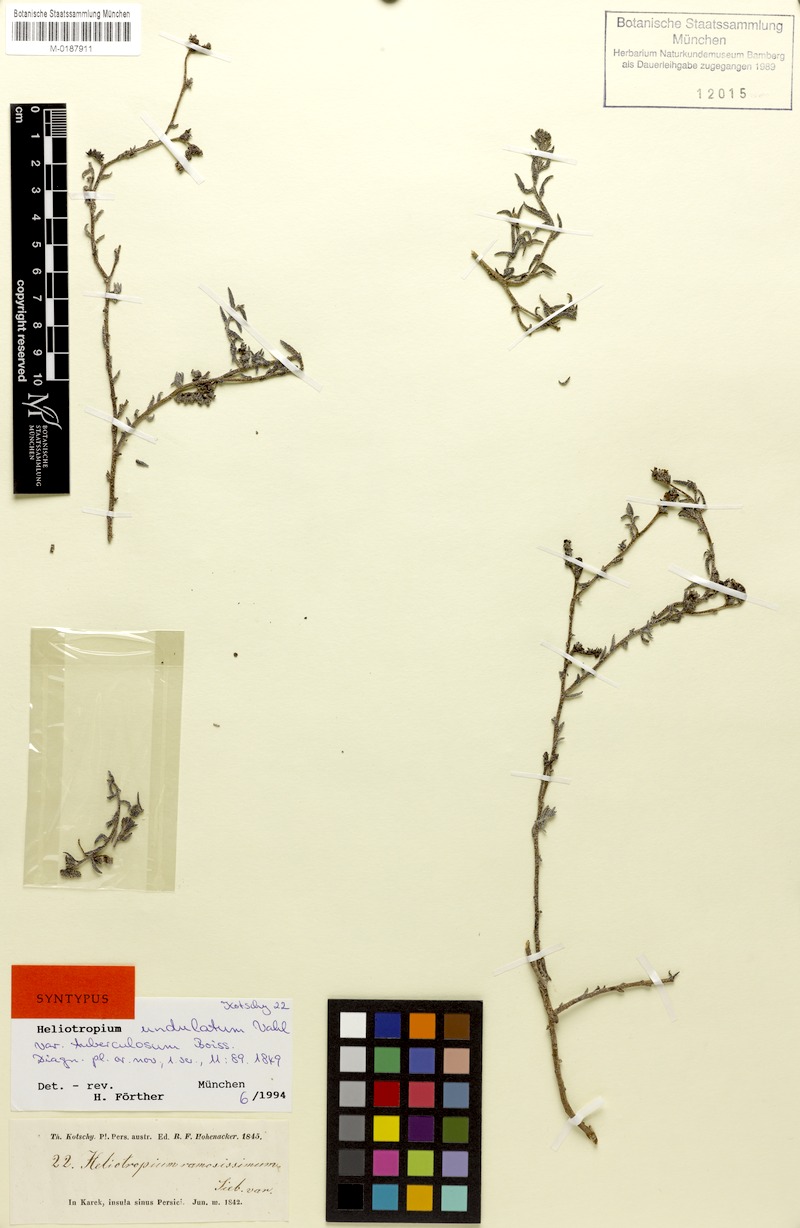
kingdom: Plantae
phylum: Tracheophyta
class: Magnoliopsida
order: Boraginales
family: Heliotropiaceae
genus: Heliotropium
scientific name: Heliotropium bacciferum
